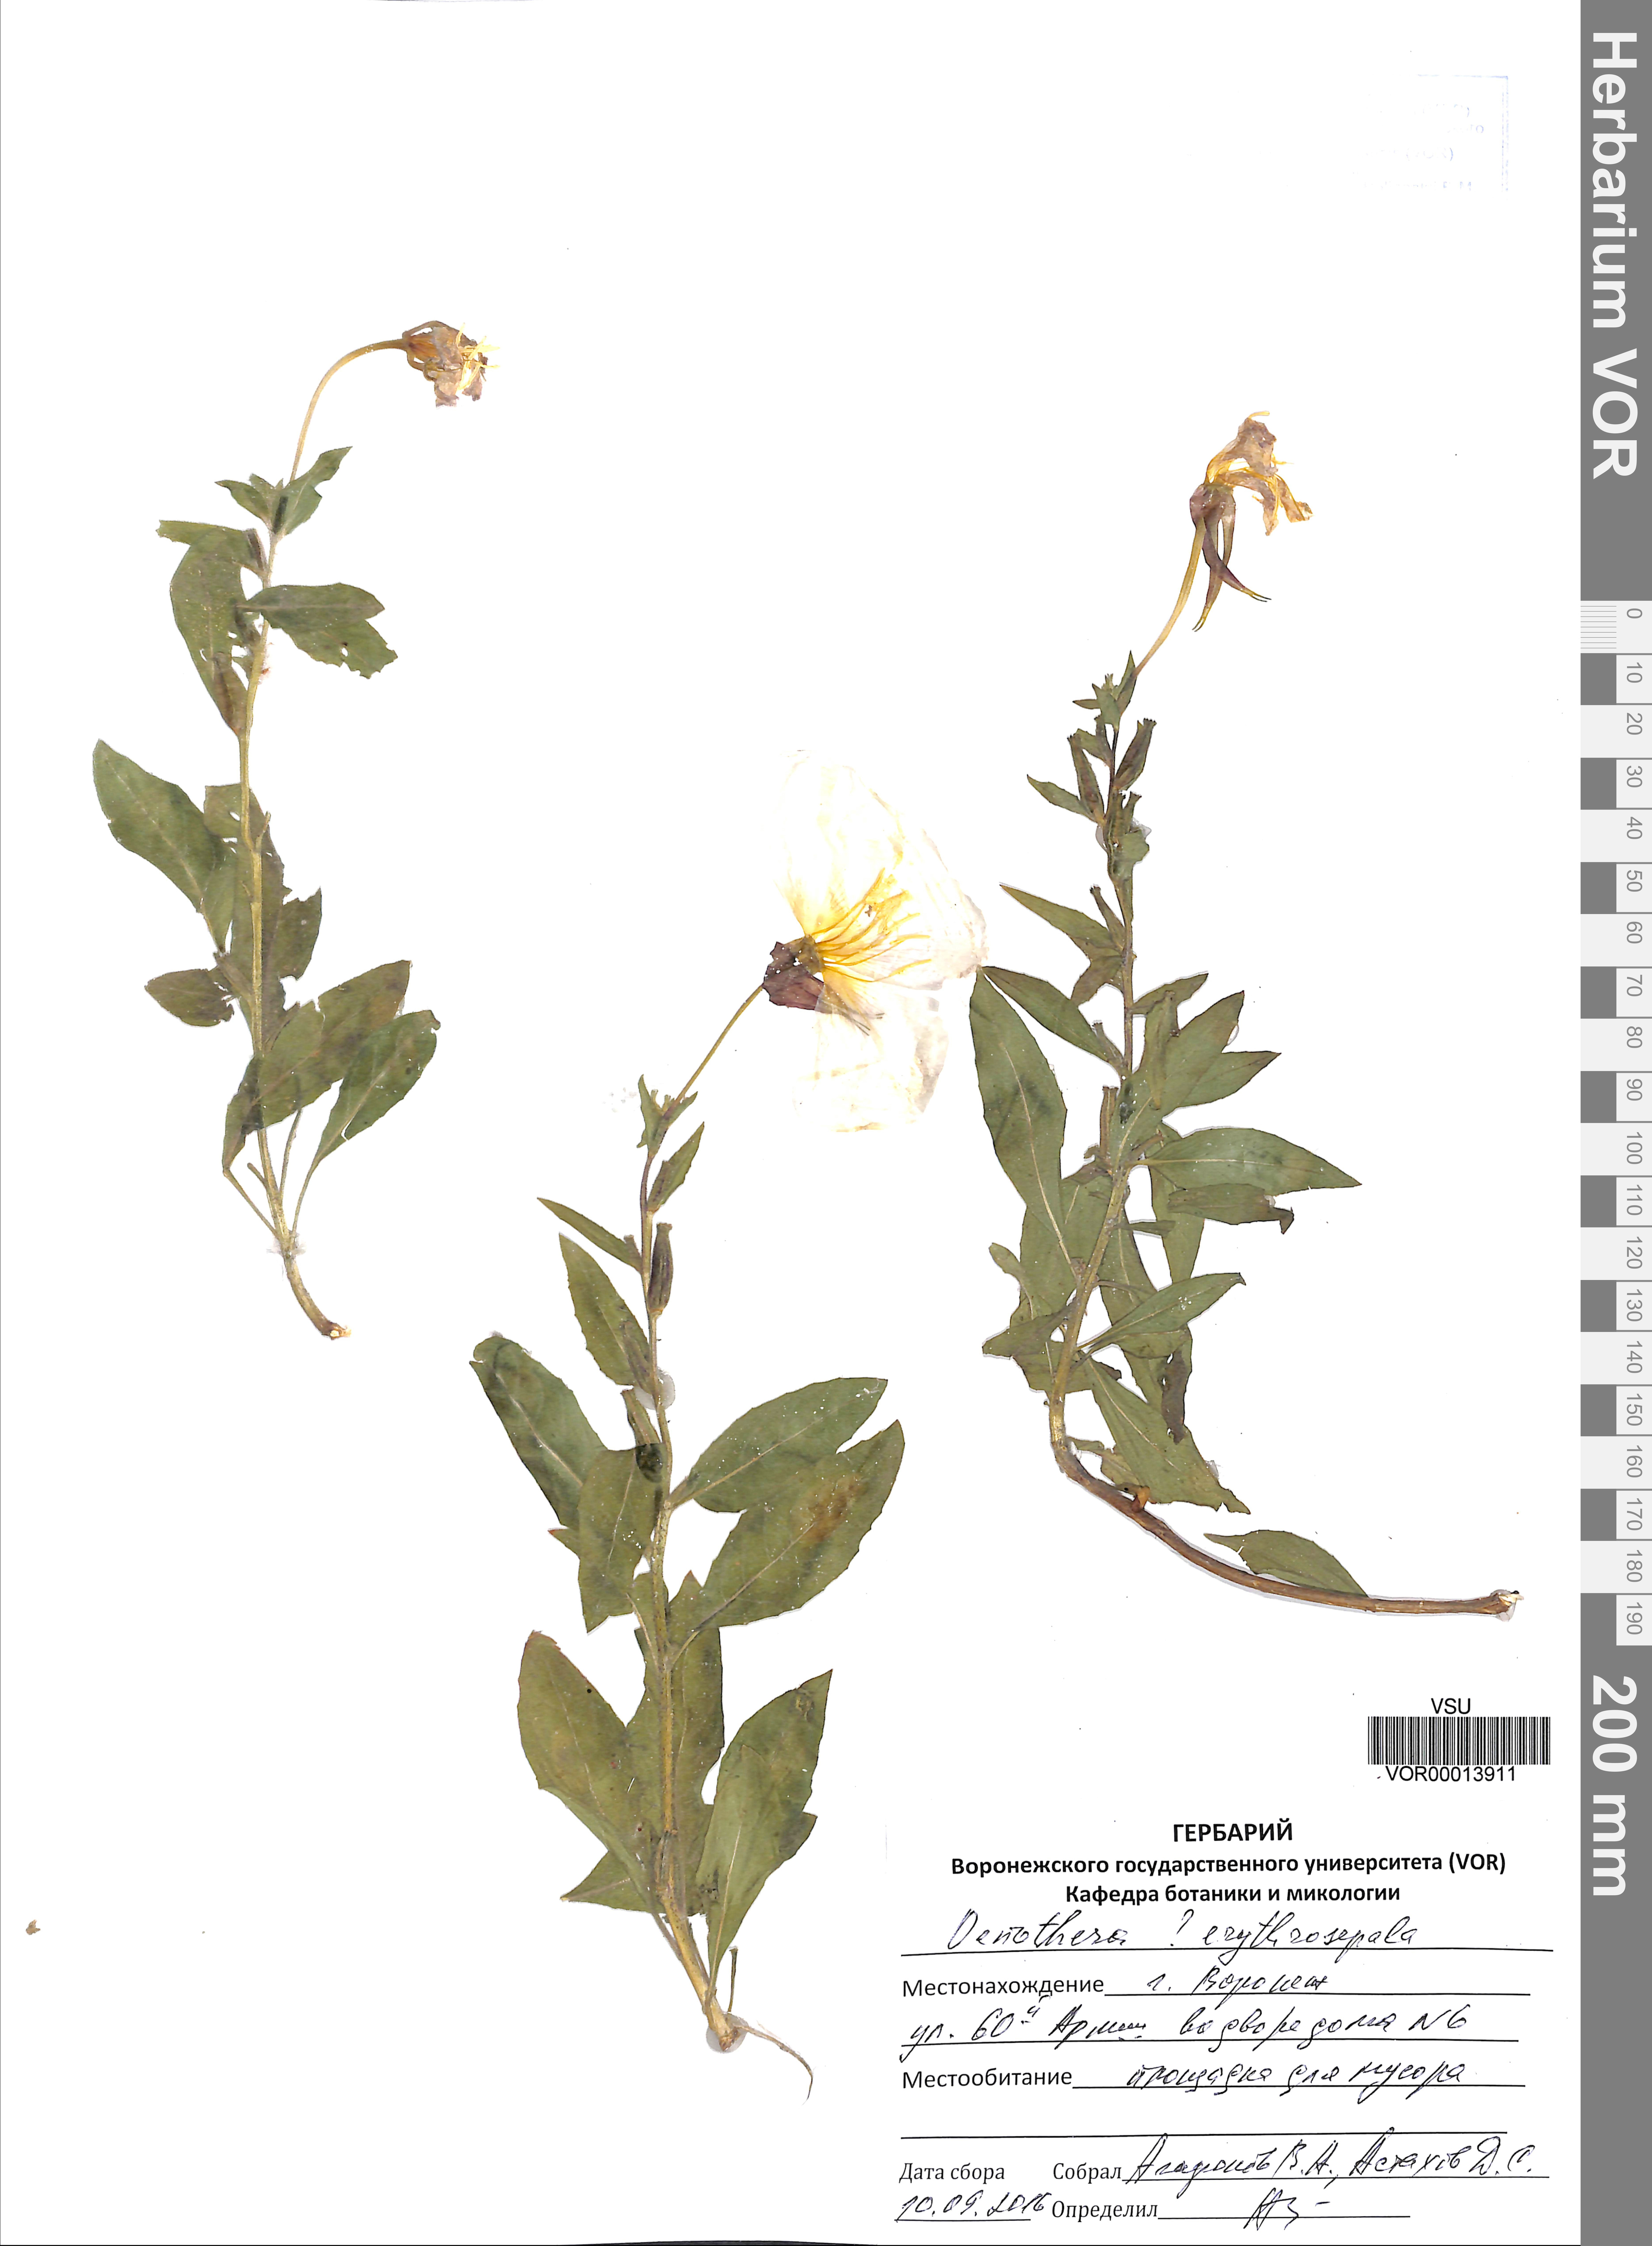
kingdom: Plantae
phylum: Tracheophyta
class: Magnoliopsida
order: Myrtales
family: Onagraceae
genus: Oenothera
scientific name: Oenothera glazioviana
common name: Large-flowered evening-primrose
